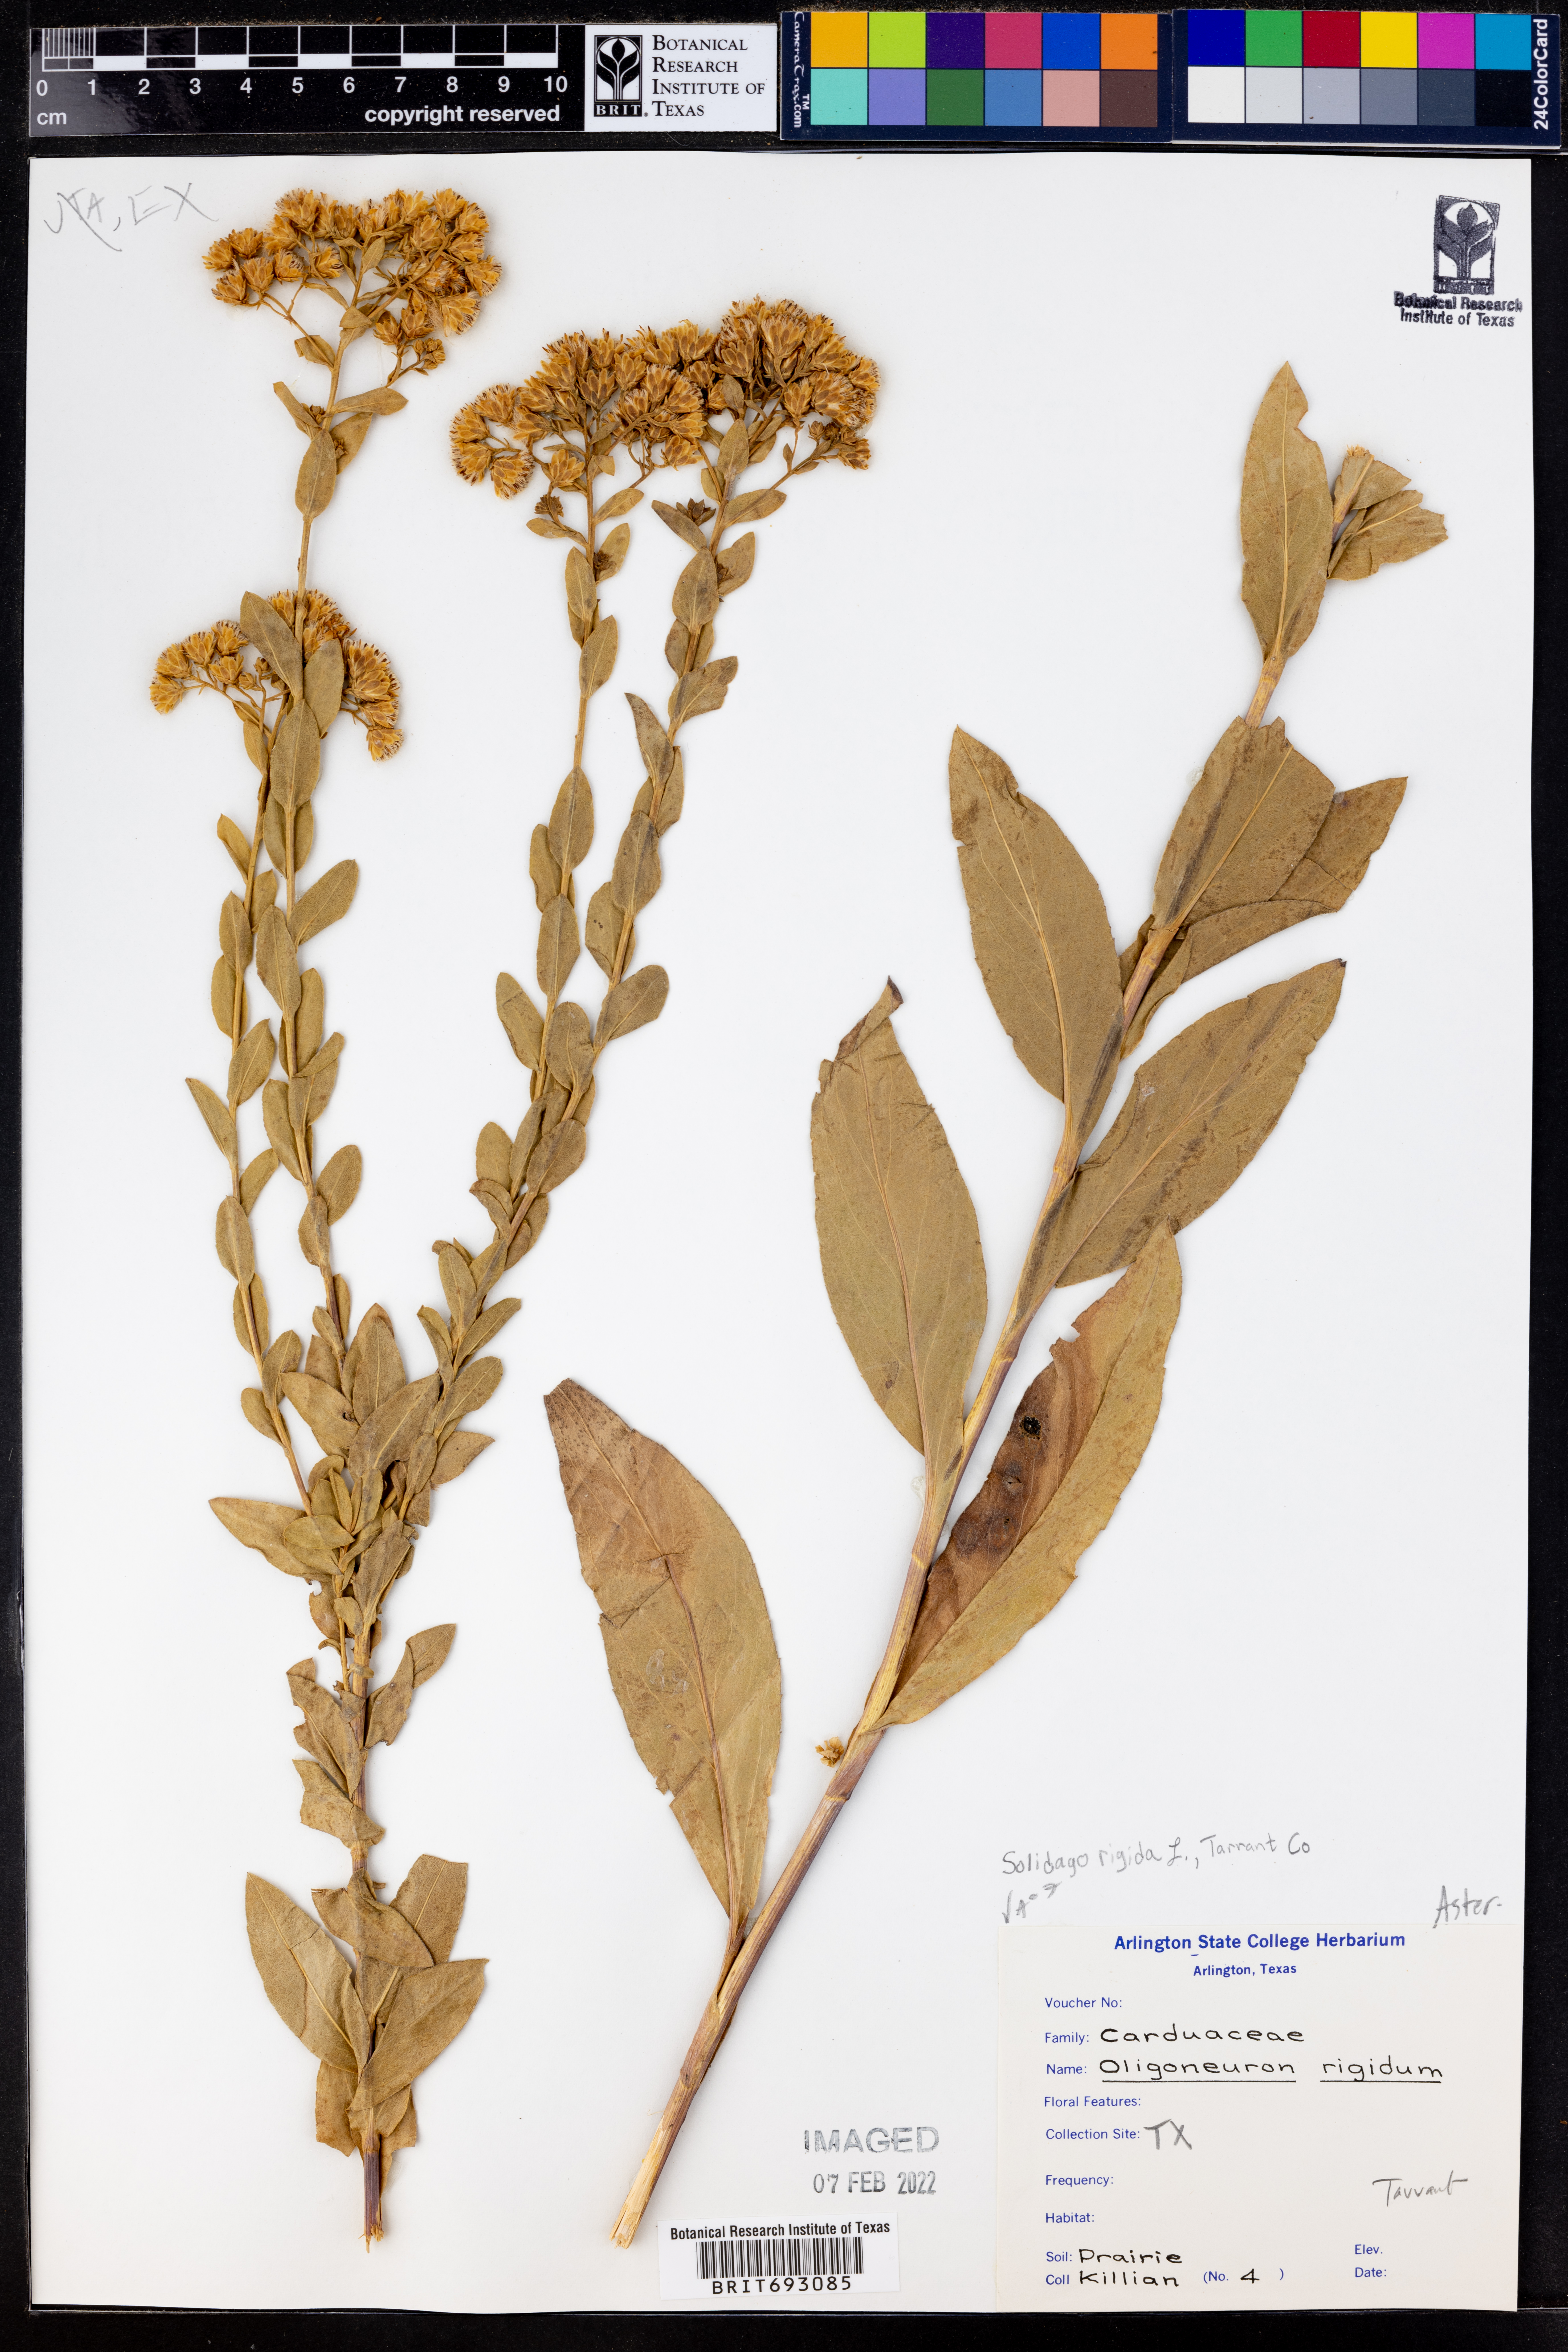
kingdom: Plantae
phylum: Tracheophyta
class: Magnoliopsida
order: Asterales
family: Asteraceae
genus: Solidago
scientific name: Solidago rigida
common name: Rigid goldenrod
